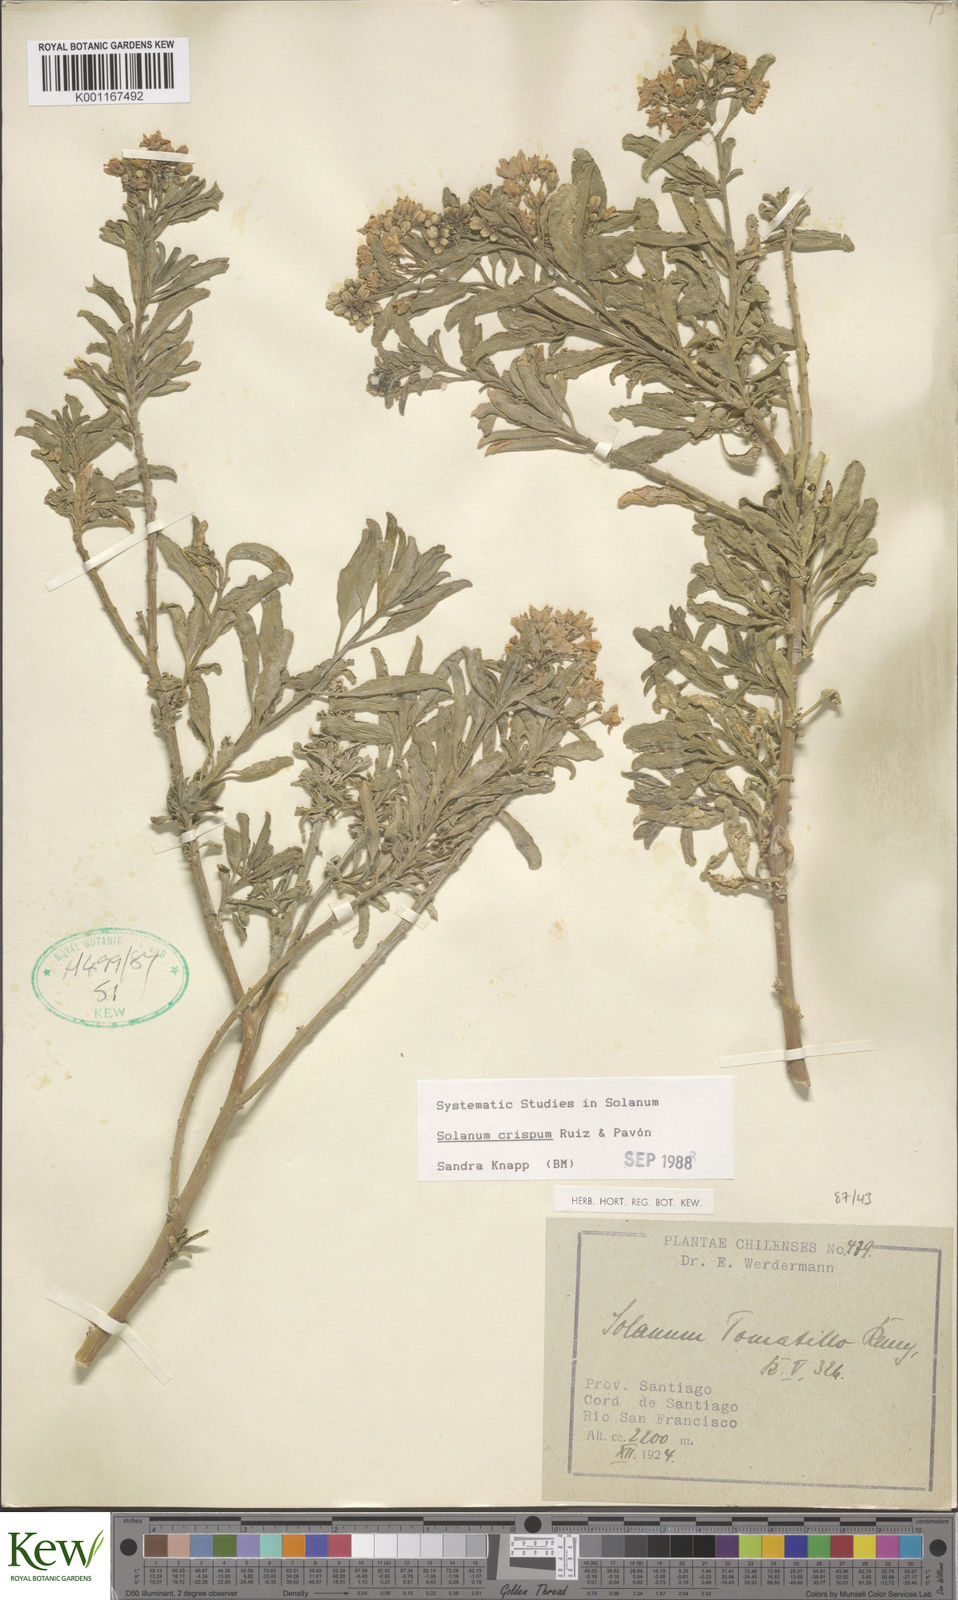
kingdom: Plantae
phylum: Tracheophyta
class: Magnoliopsida
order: Solanales
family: Solanaceae
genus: Solanum
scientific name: Solanum crispum
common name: Chilean nightshade
